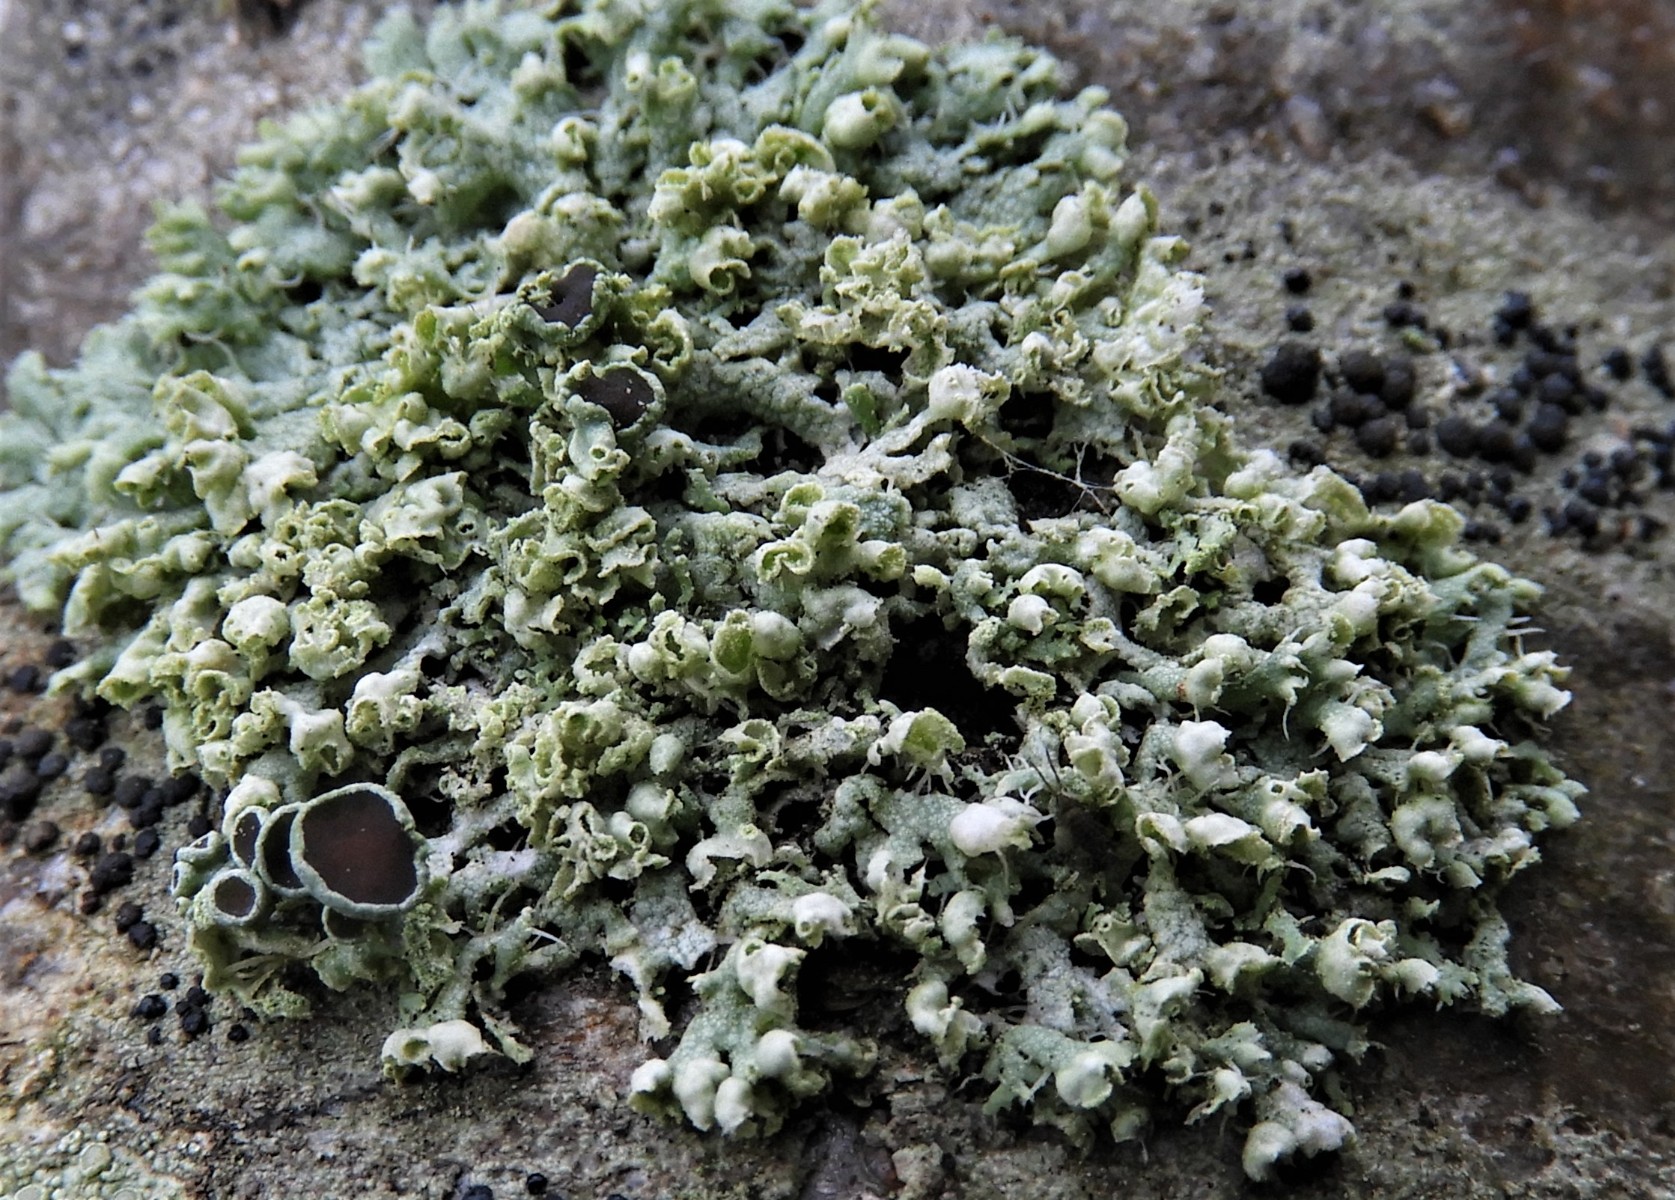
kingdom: Fungi
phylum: Ascomycota
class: Lecanoromycetes
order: Caliciales
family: Physciaceae
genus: Physcia
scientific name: Physcia adscendens
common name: hætte-rosetlav
